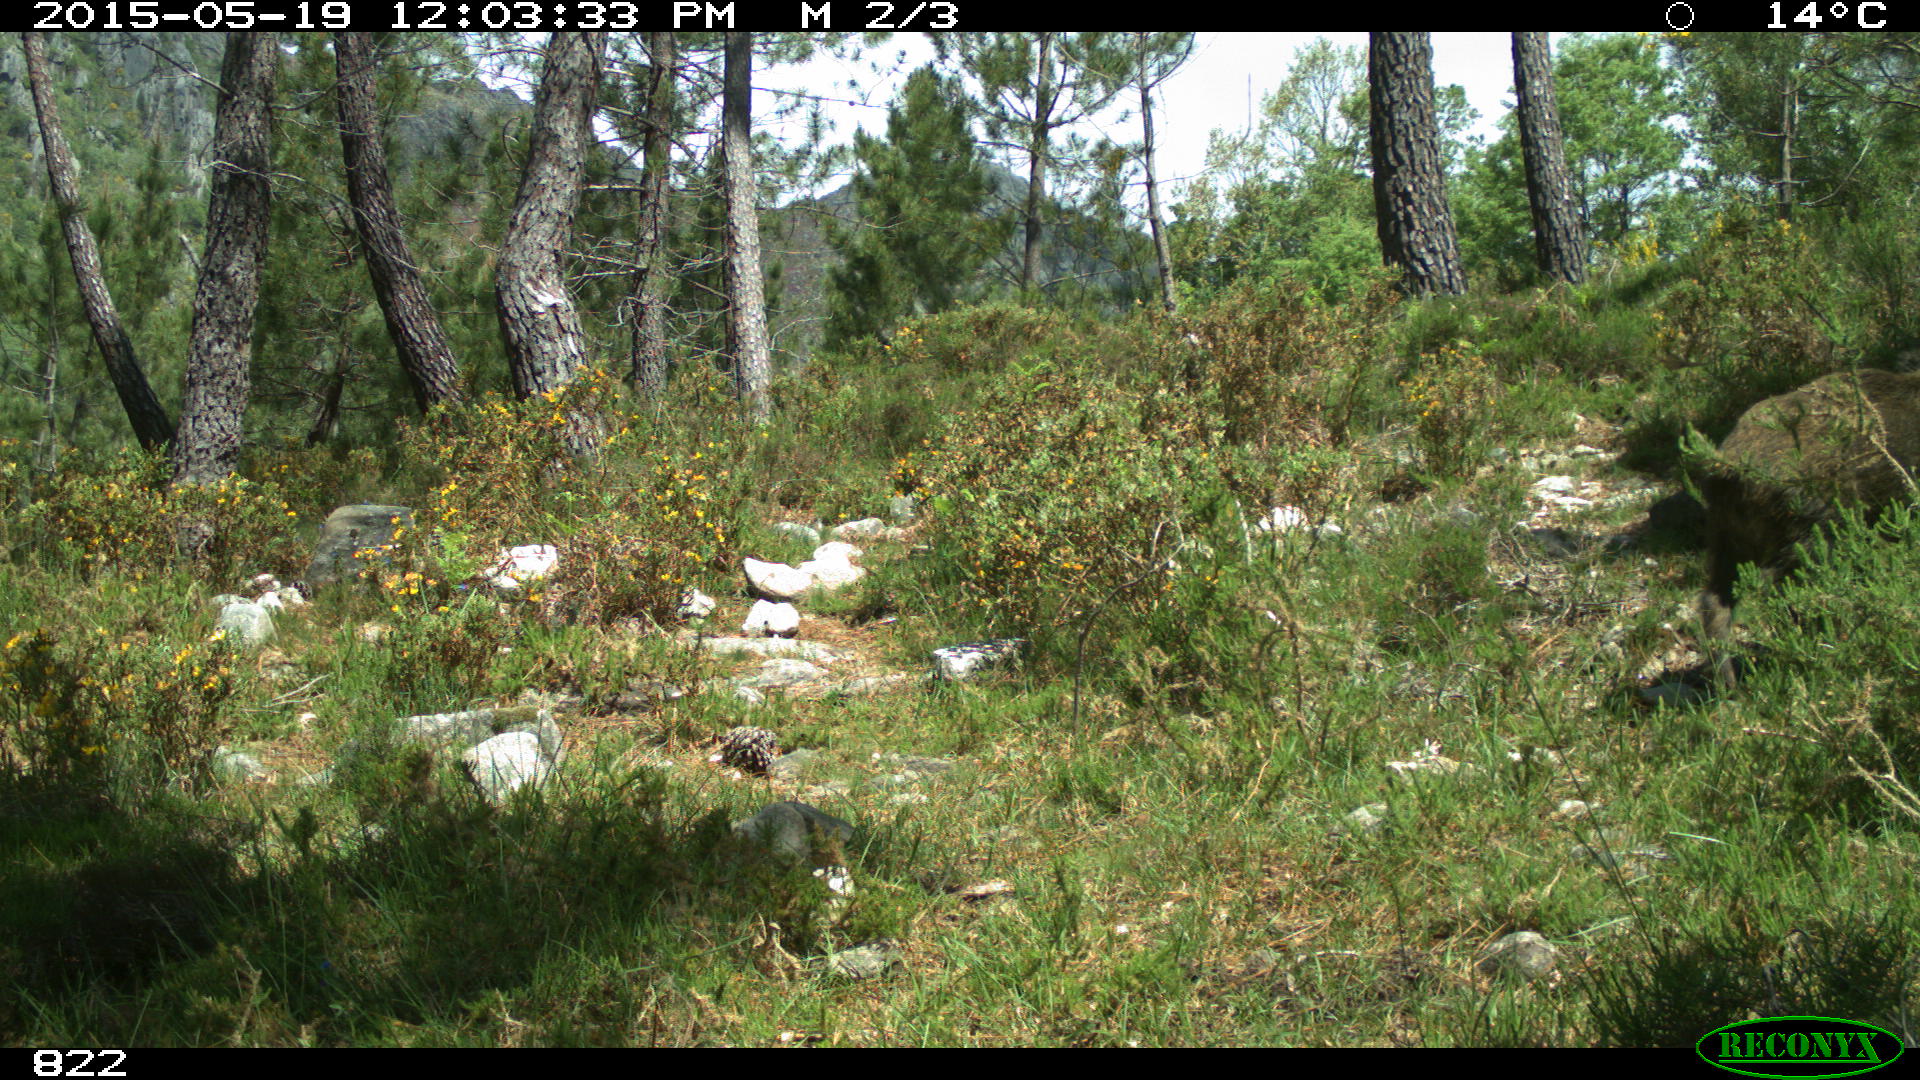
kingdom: Animalia
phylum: Chordata
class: Mammalia
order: Artiodactyla
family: Suidae
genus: Sus
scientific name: Sus scrofa
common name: Wild boar
